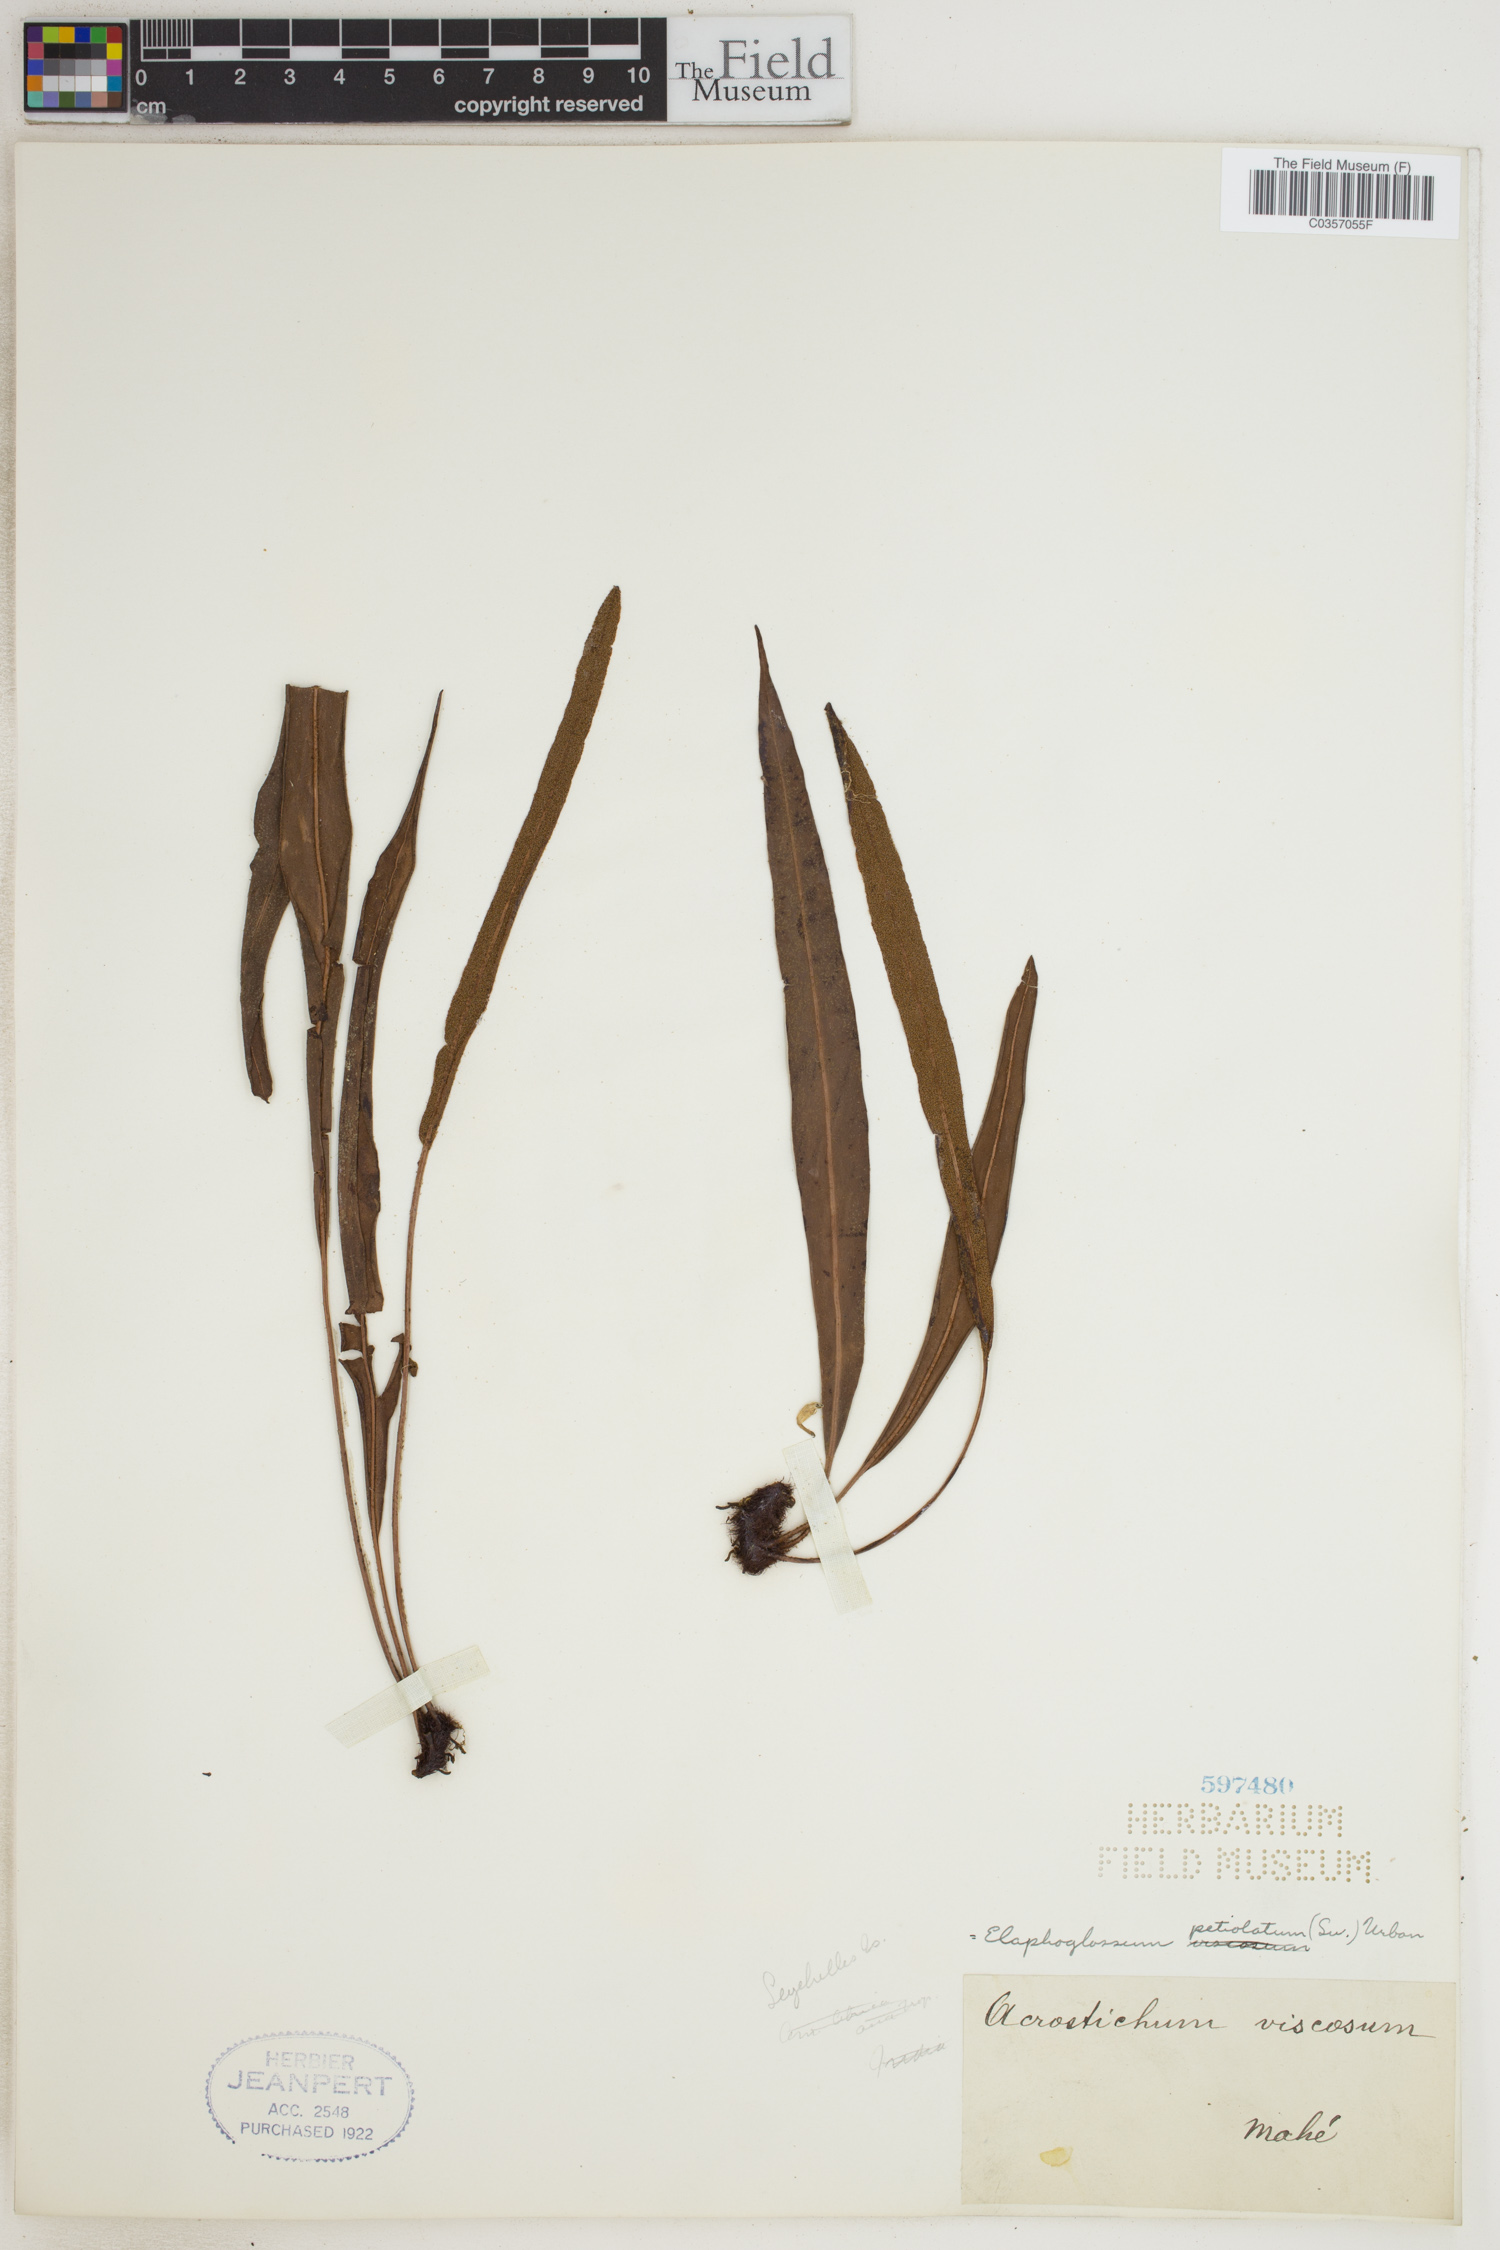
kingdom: Plantae
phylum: Tracheophyta
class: Polypodiopsida
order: Polypodiales
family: Dryopteridaceae
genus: Elaphoglossum
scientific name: Elaphoglossum petiolatum
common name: Graceful tonguefern
